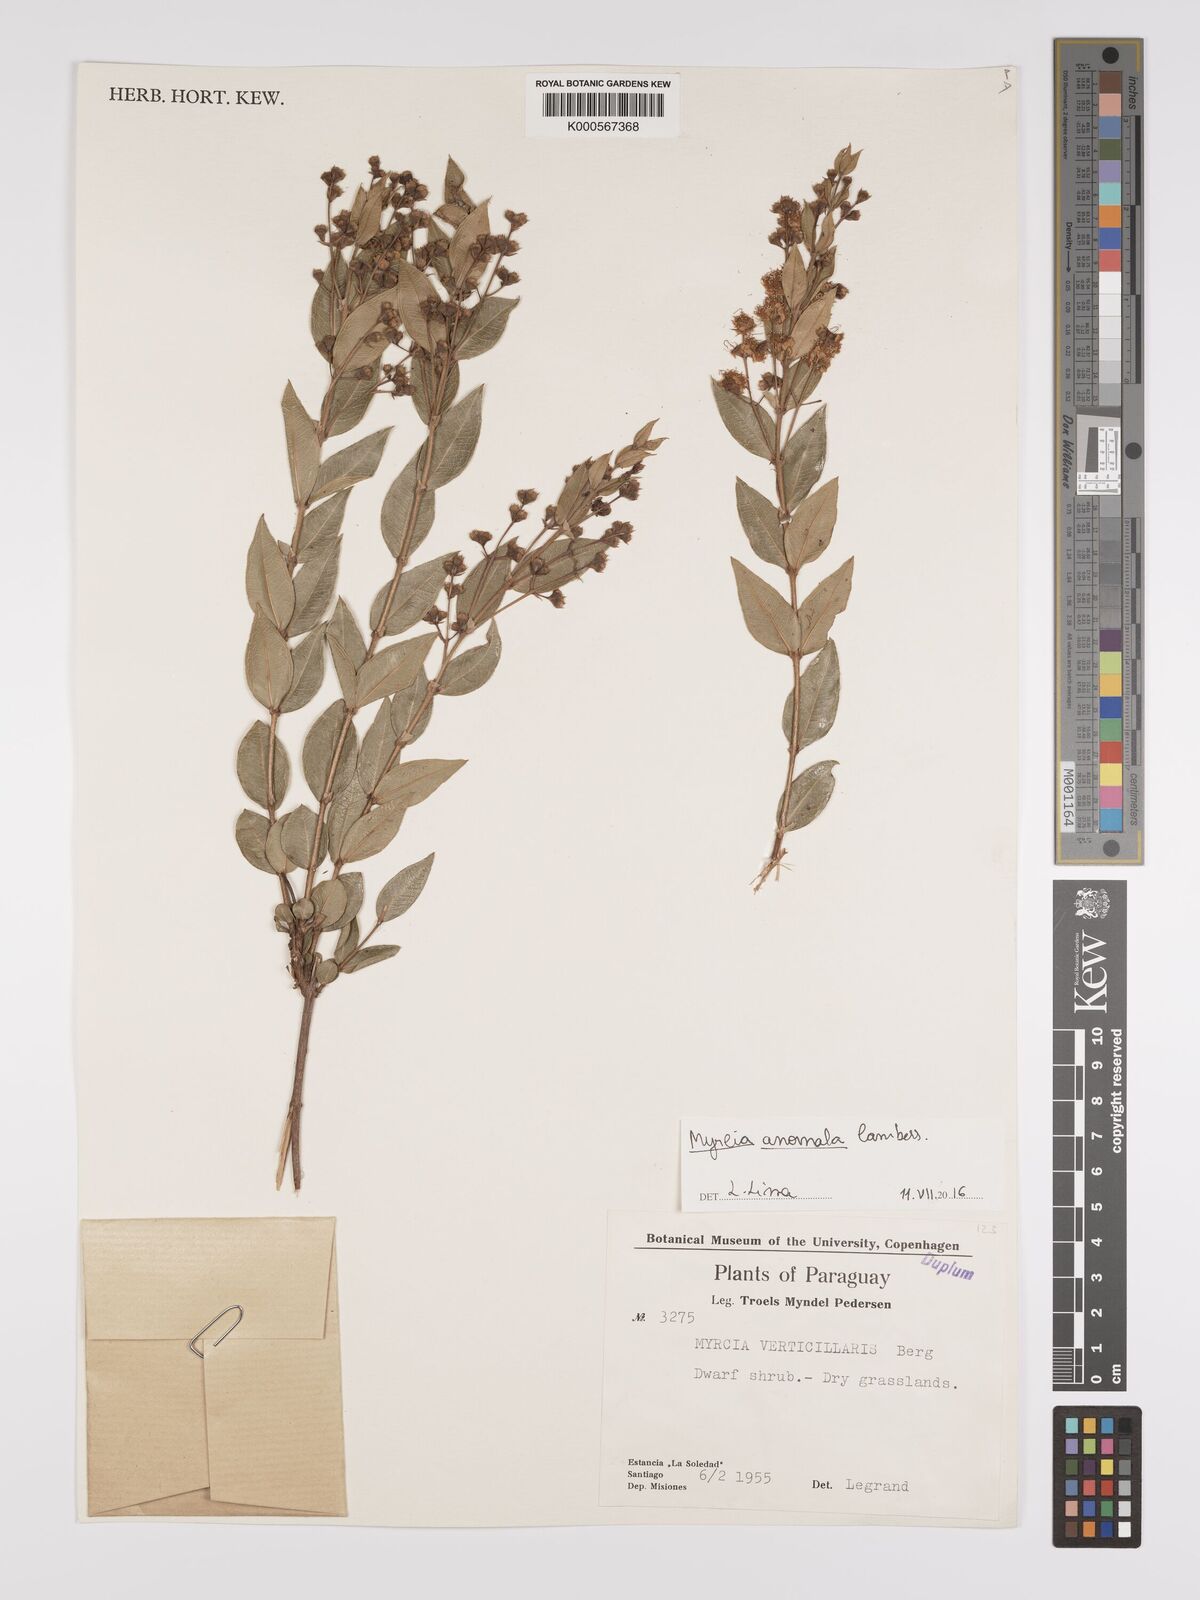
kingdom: Plantae
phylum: Tracheophyta
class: Magnoliopsida
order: Myrtales
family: Myrtaceae
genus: Myrcia
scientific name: Myrcia anomala
